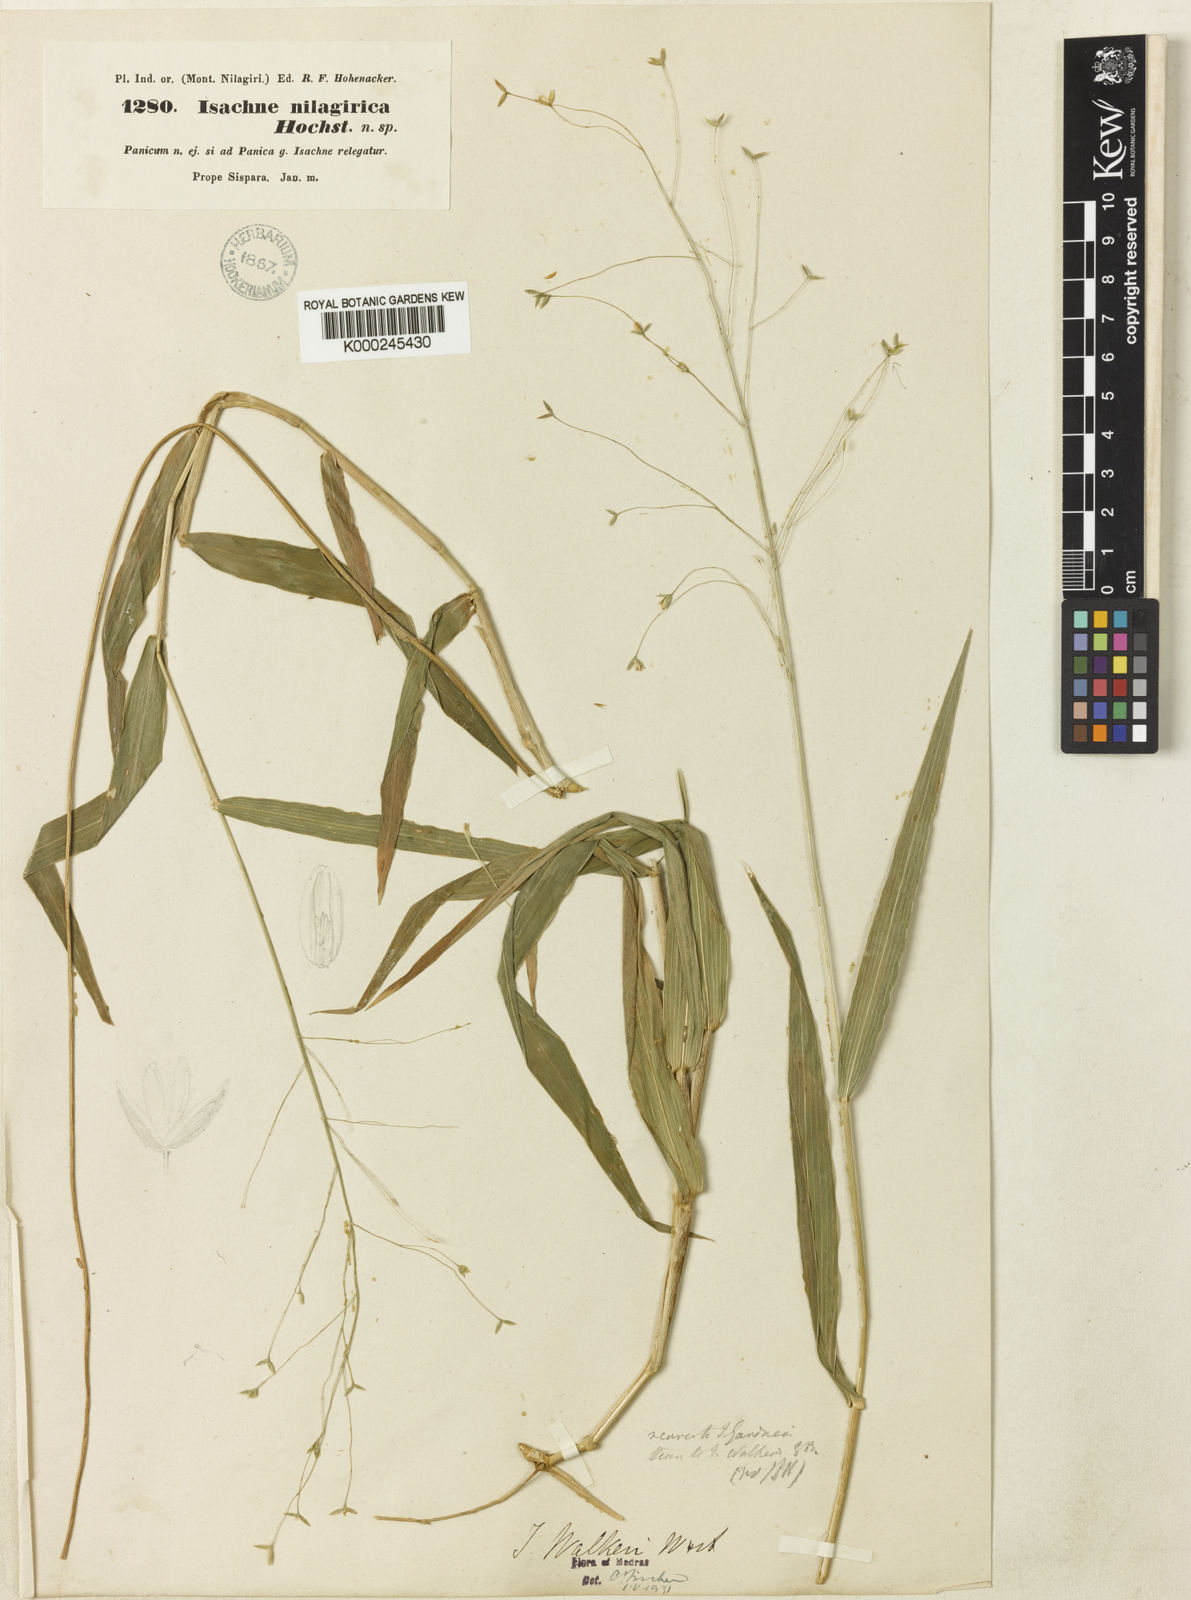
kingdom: Plantae
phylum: Tracheophyta
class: Liliopsida
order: Poales
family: Poaceae
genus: Isachne
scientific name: Isachne walkeri
